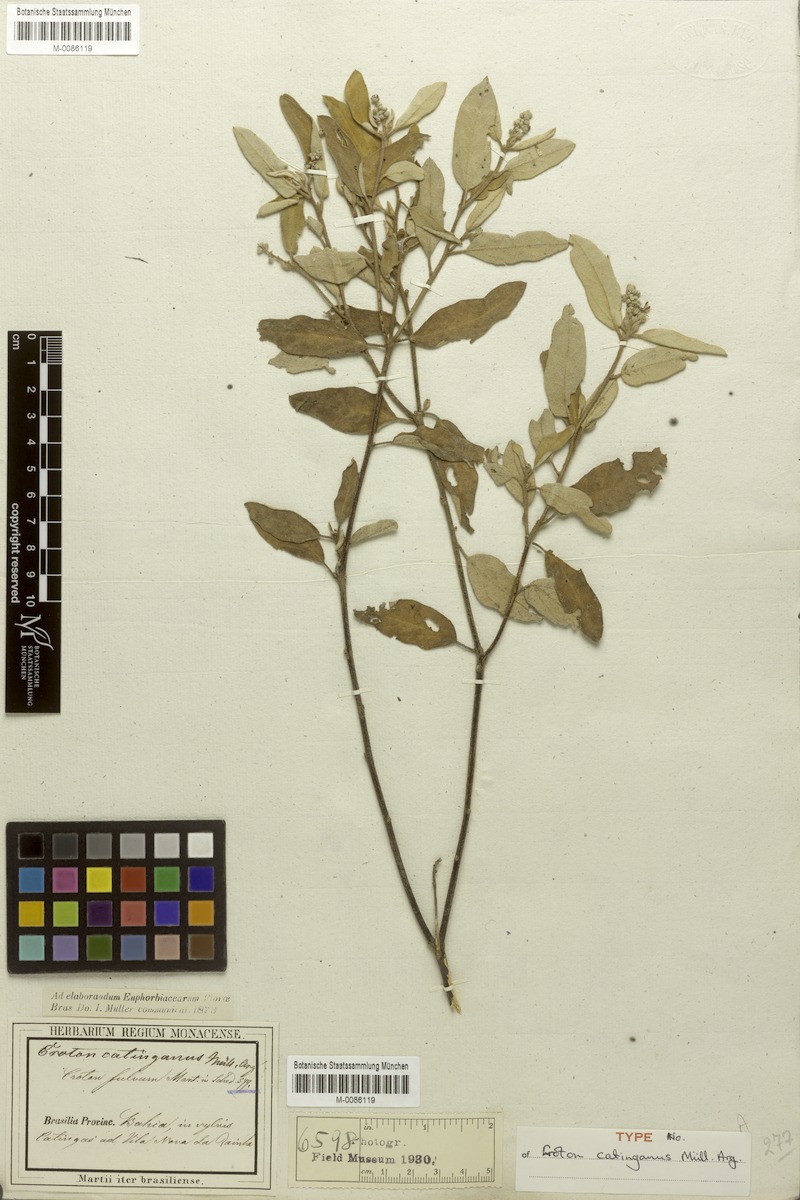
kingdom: Plantae
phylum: Tracheophyta
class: Magnoliopsida
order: Malpighiales
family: Euphorbiaceae
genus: Croton
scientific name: Croton catinganus
